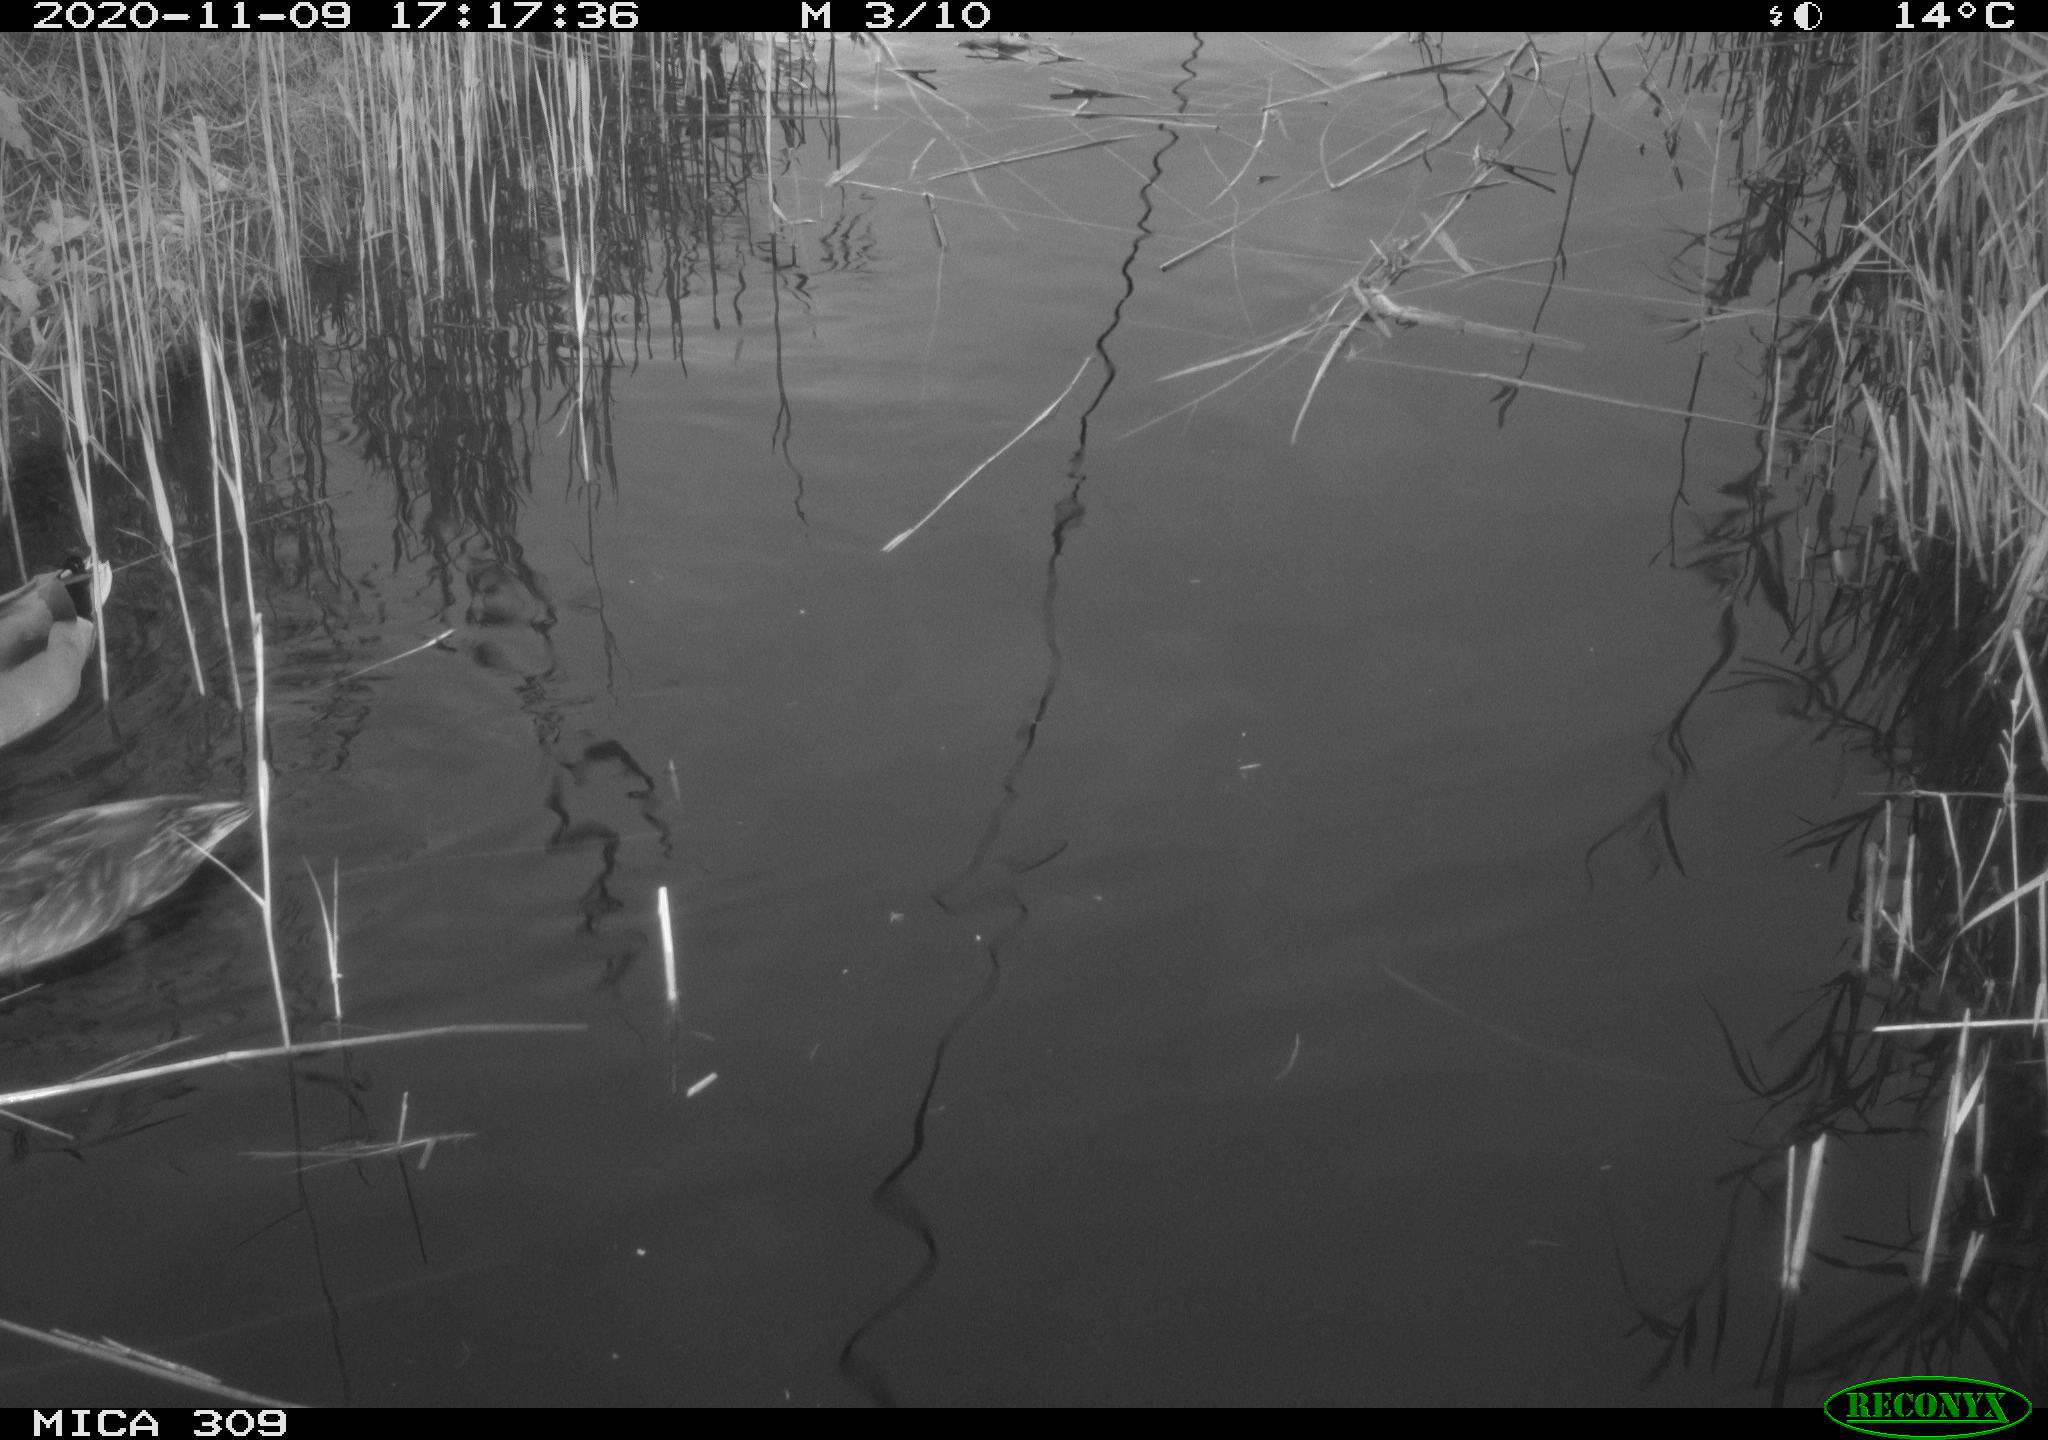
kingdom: Animalia
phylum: Chordata
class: Aves
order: Anseriformes
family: Anatidae
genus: Anas
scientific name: Anas platyrhynchos
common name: Mallard
